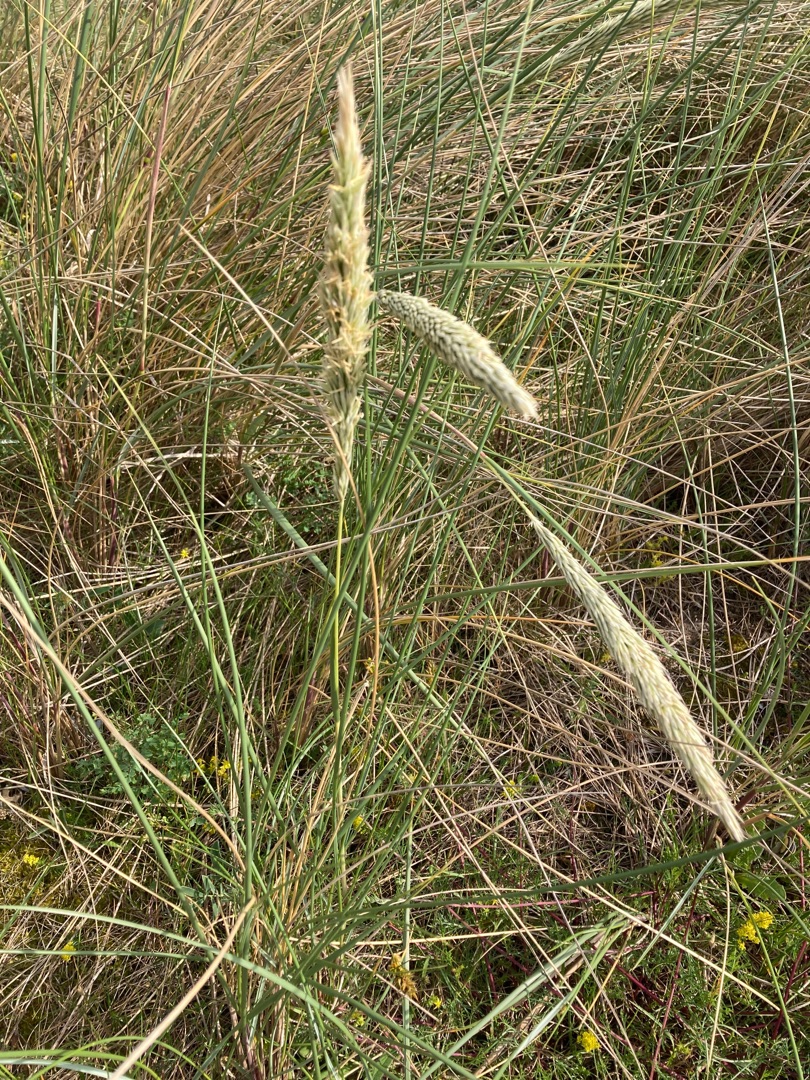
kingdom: Plantae
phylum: Tracheophyta
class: Liliopsida
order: Poales
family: Poaceae
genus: Calamagrostis
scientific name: Calamagrostis arenaria
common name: Sand-hjælme
